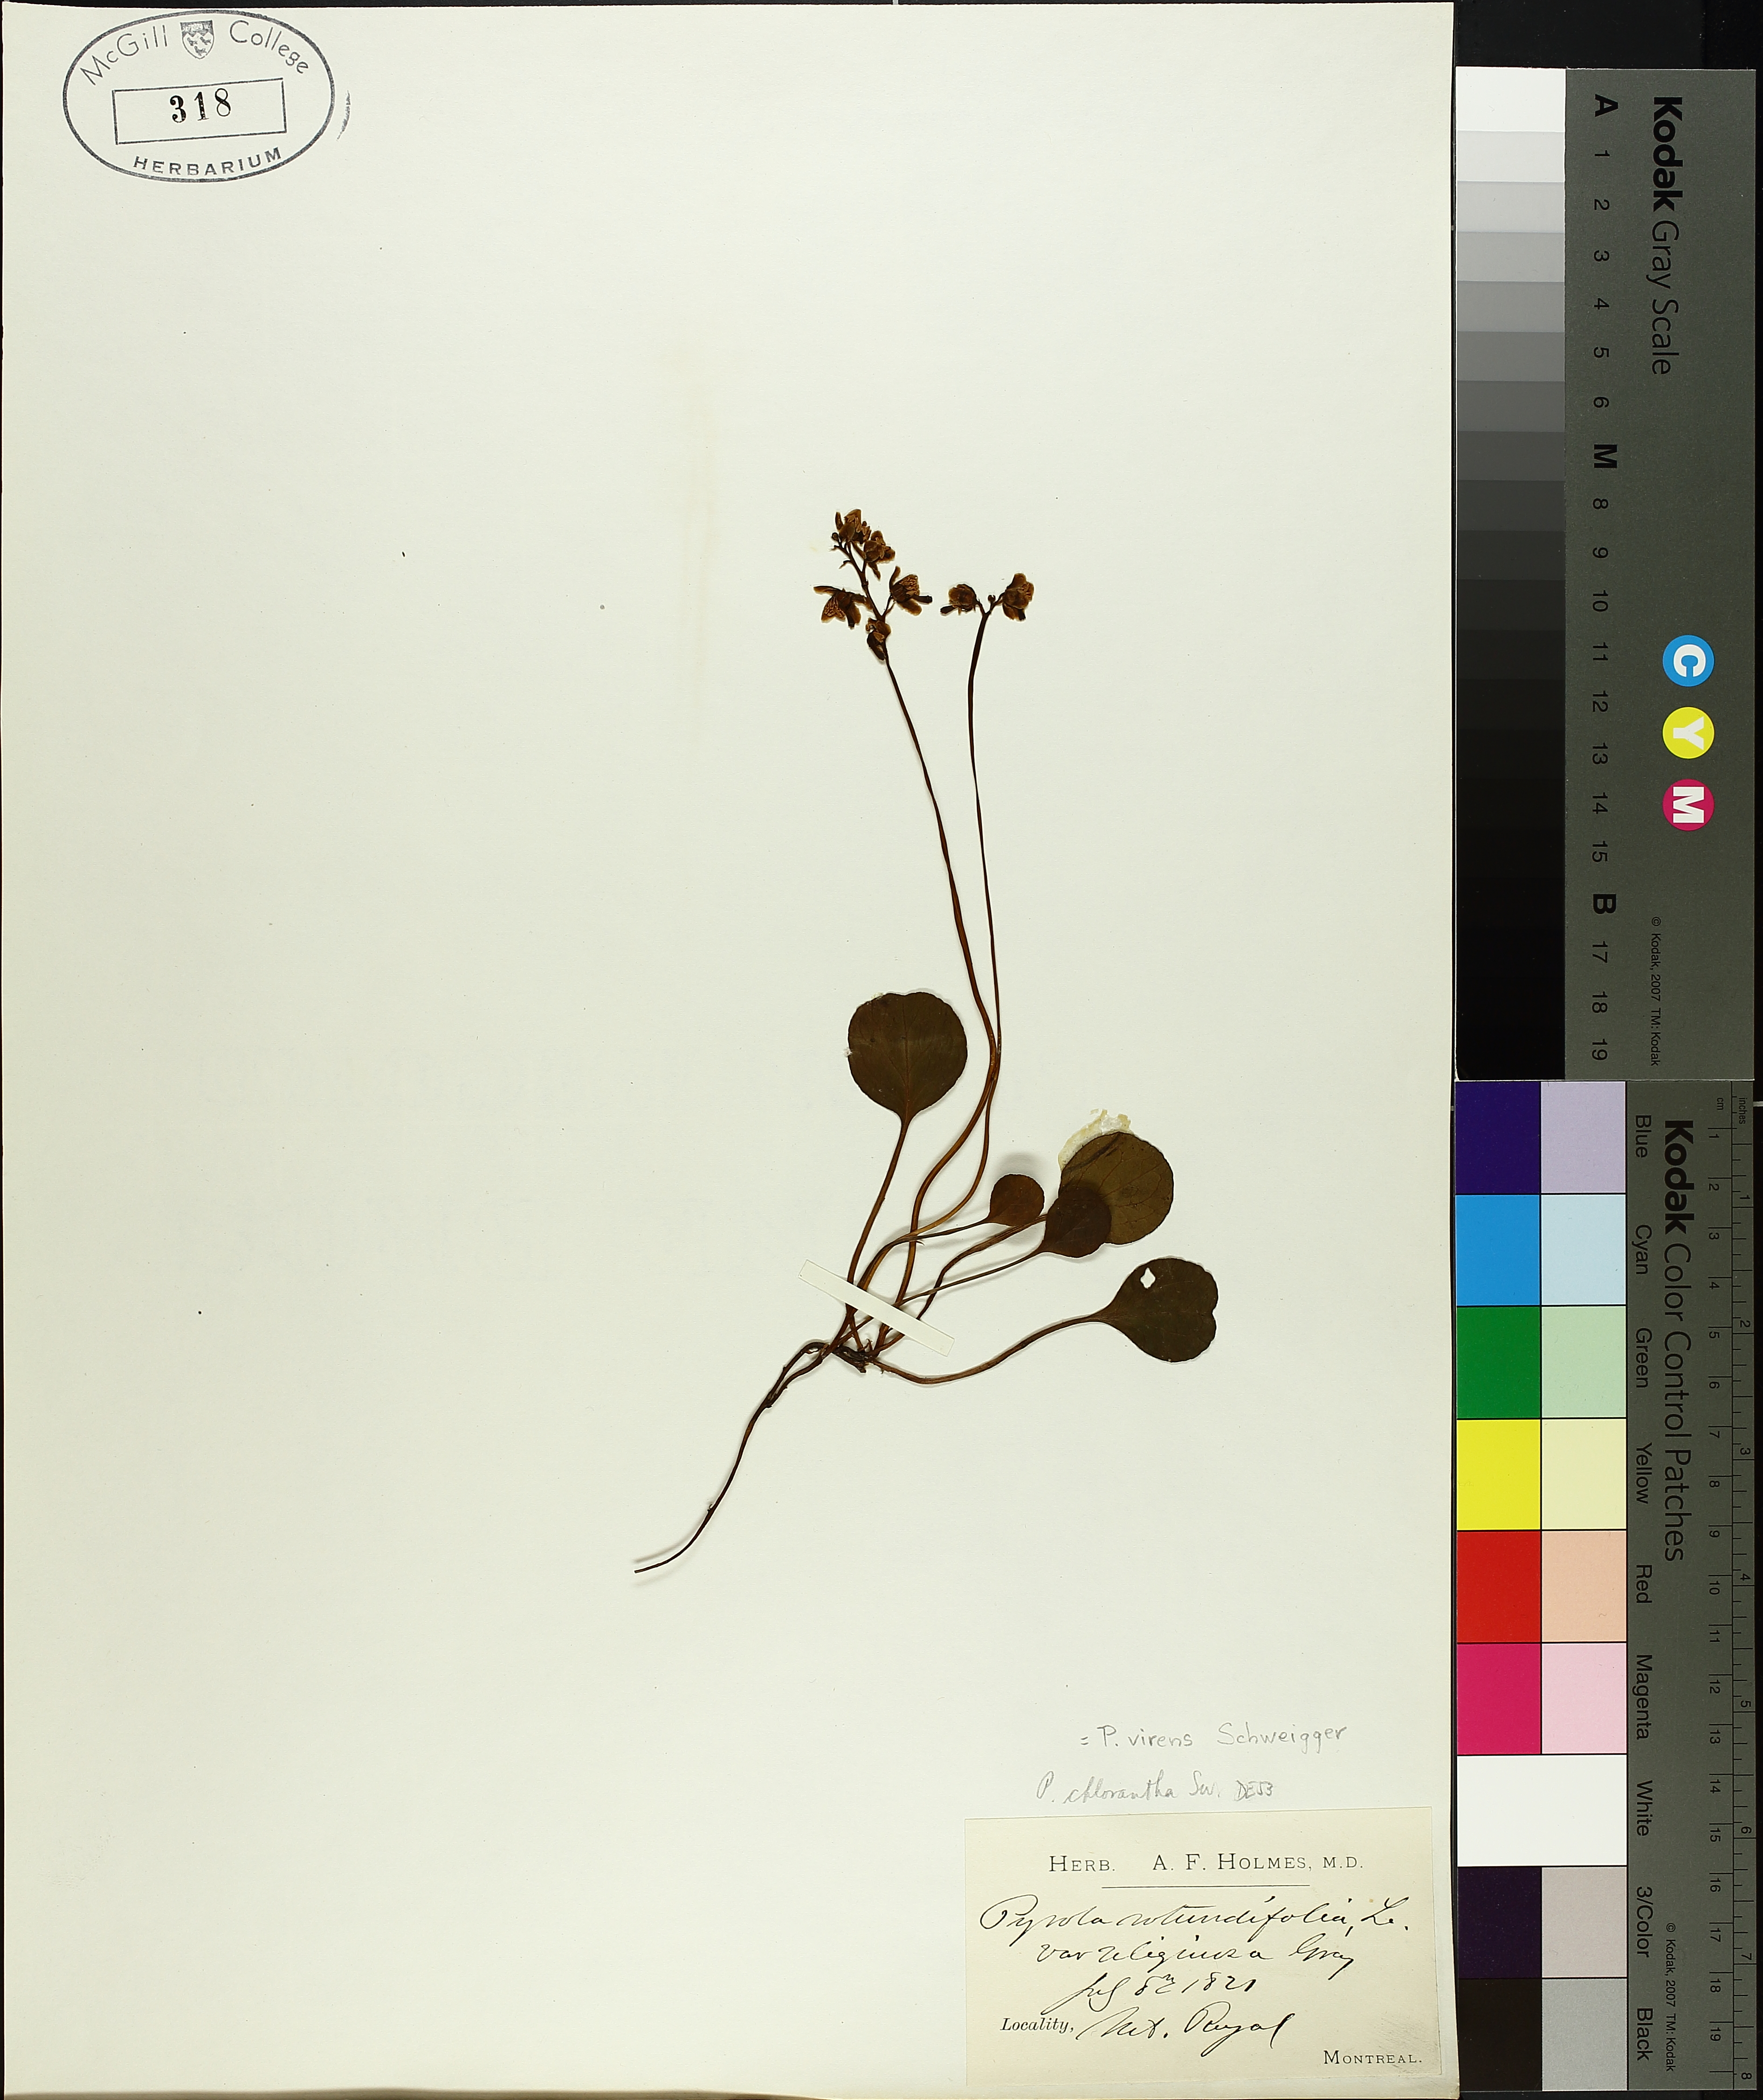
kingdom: Plantae
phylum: Tracheophyta
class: Magnoliopsida
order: Ericales
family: Ericaceae
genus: Pyrola
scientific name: Pyrola chlorantha
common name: Green wintergreen
